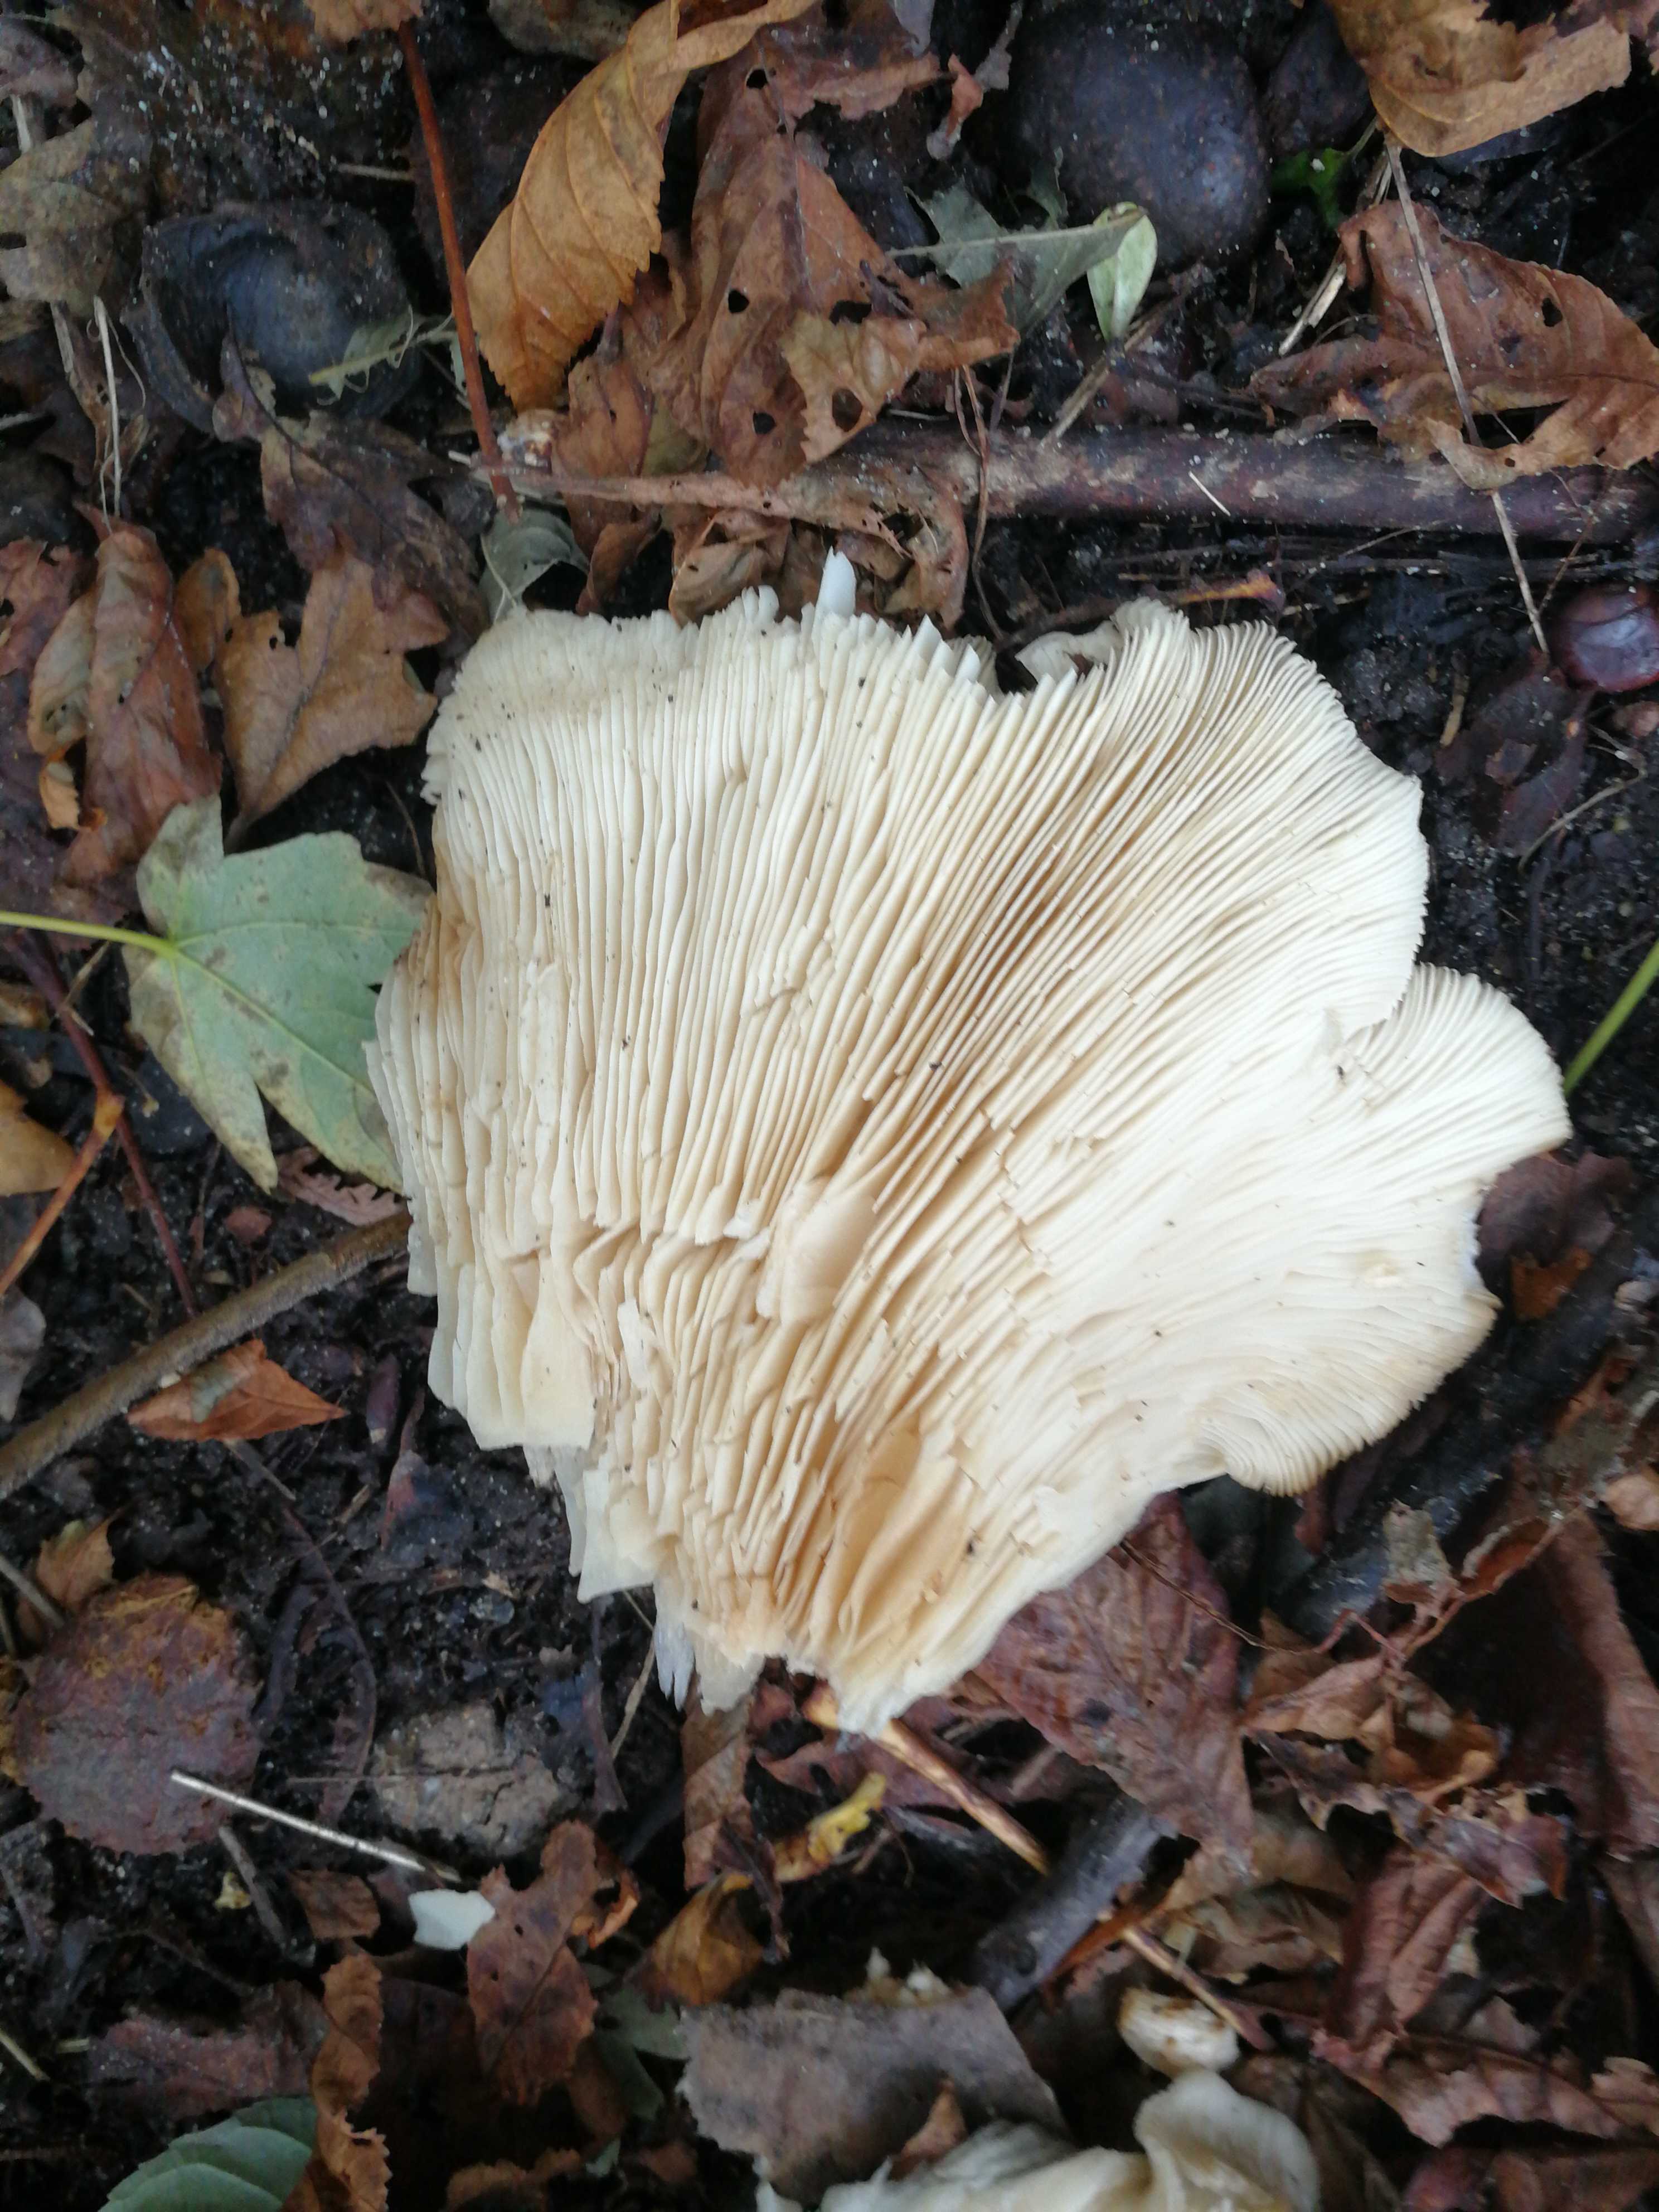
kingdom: Fungi
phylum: Basidiomycota
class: Agaricomycetes
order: Agaricales
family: Tricholomataceae
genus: Clitocybe
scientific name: Clitocybe nebularis
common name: tåge-tragthat
